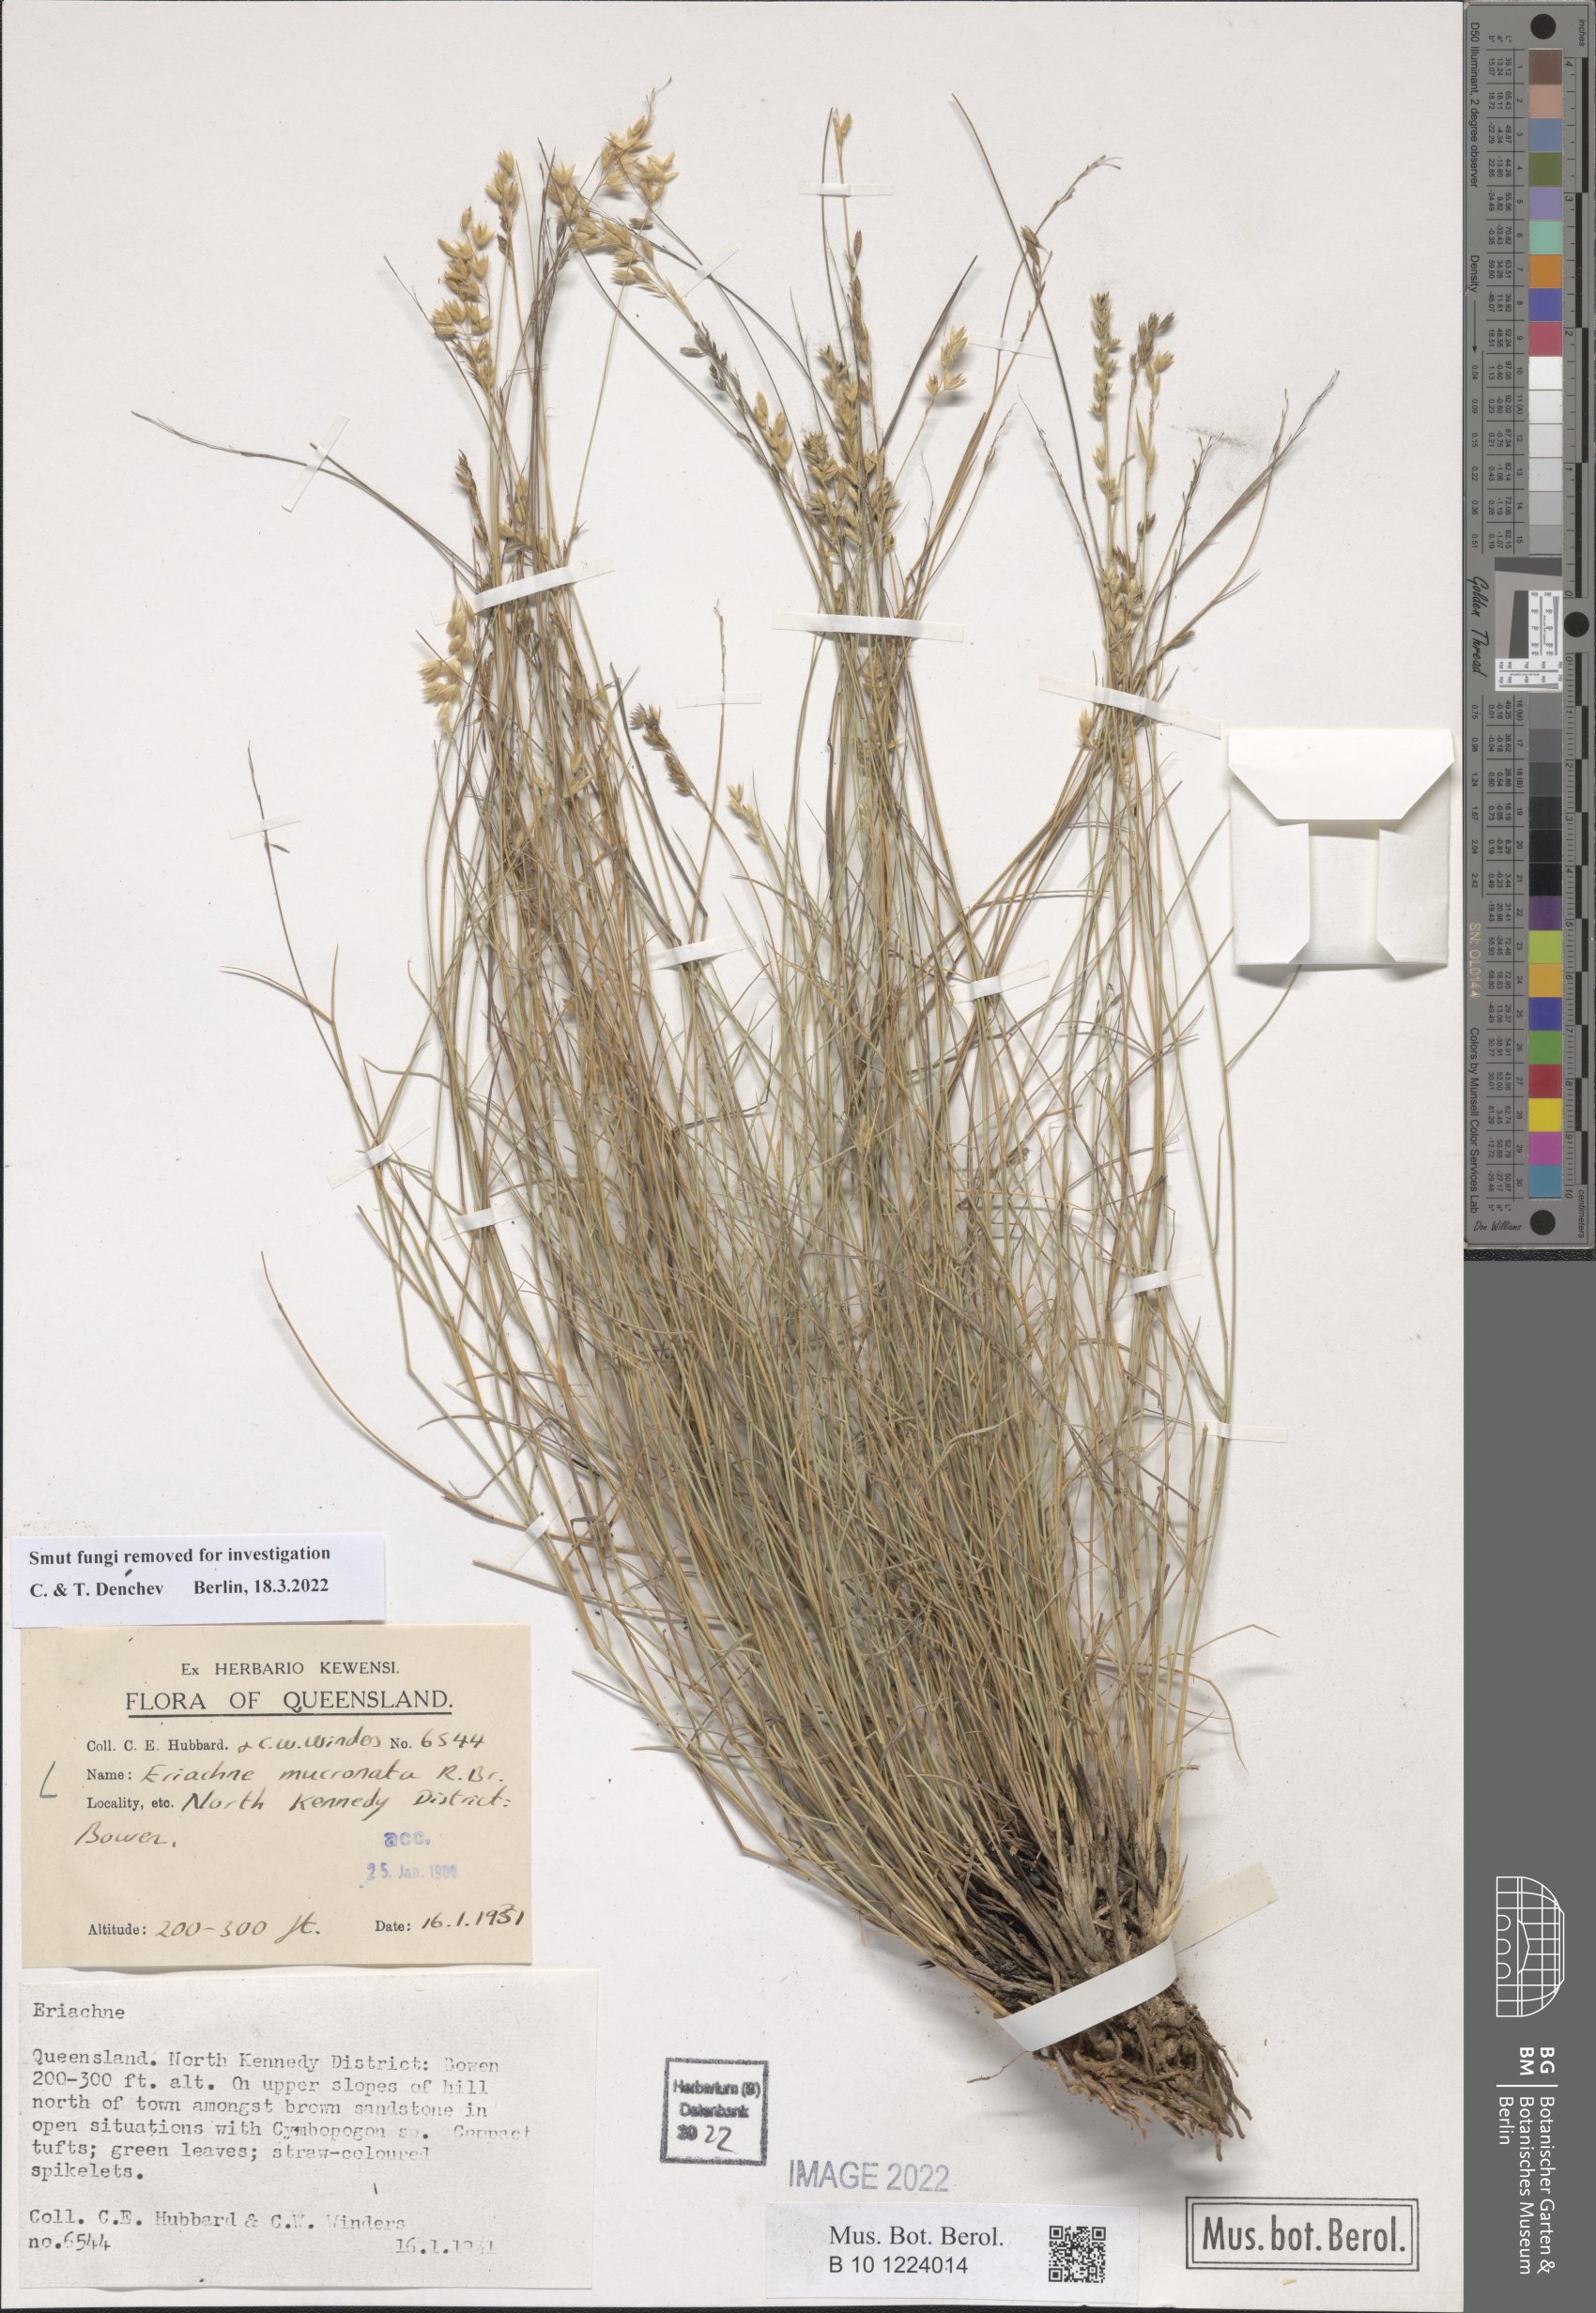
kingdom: Plantae
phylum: Tracheophyta
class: Liliopsida
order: Poales
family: Poaceae
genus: Eriachne
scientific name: Eriachne mucronata
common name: Mountain wanderrie grass
